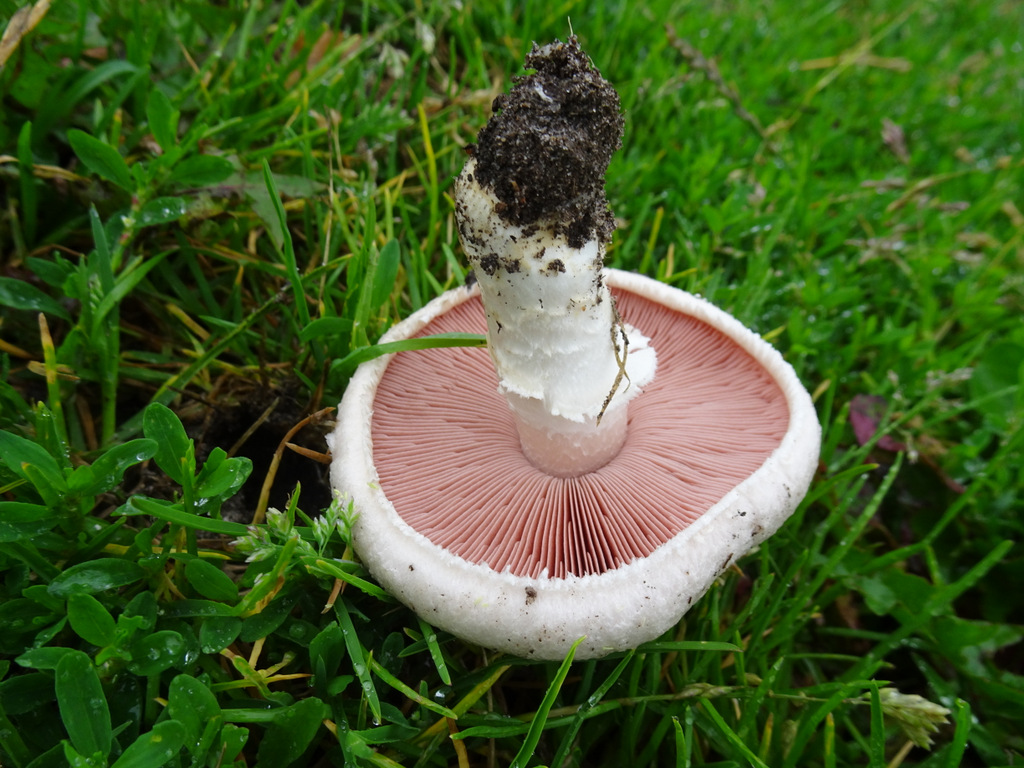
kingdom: Fungi
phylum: Basidiomycota
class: Agaricomycetes
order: Agaricales
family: Agaricaceae
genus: Agaricus
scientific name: Agaricus campestris
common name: mark-champignon
